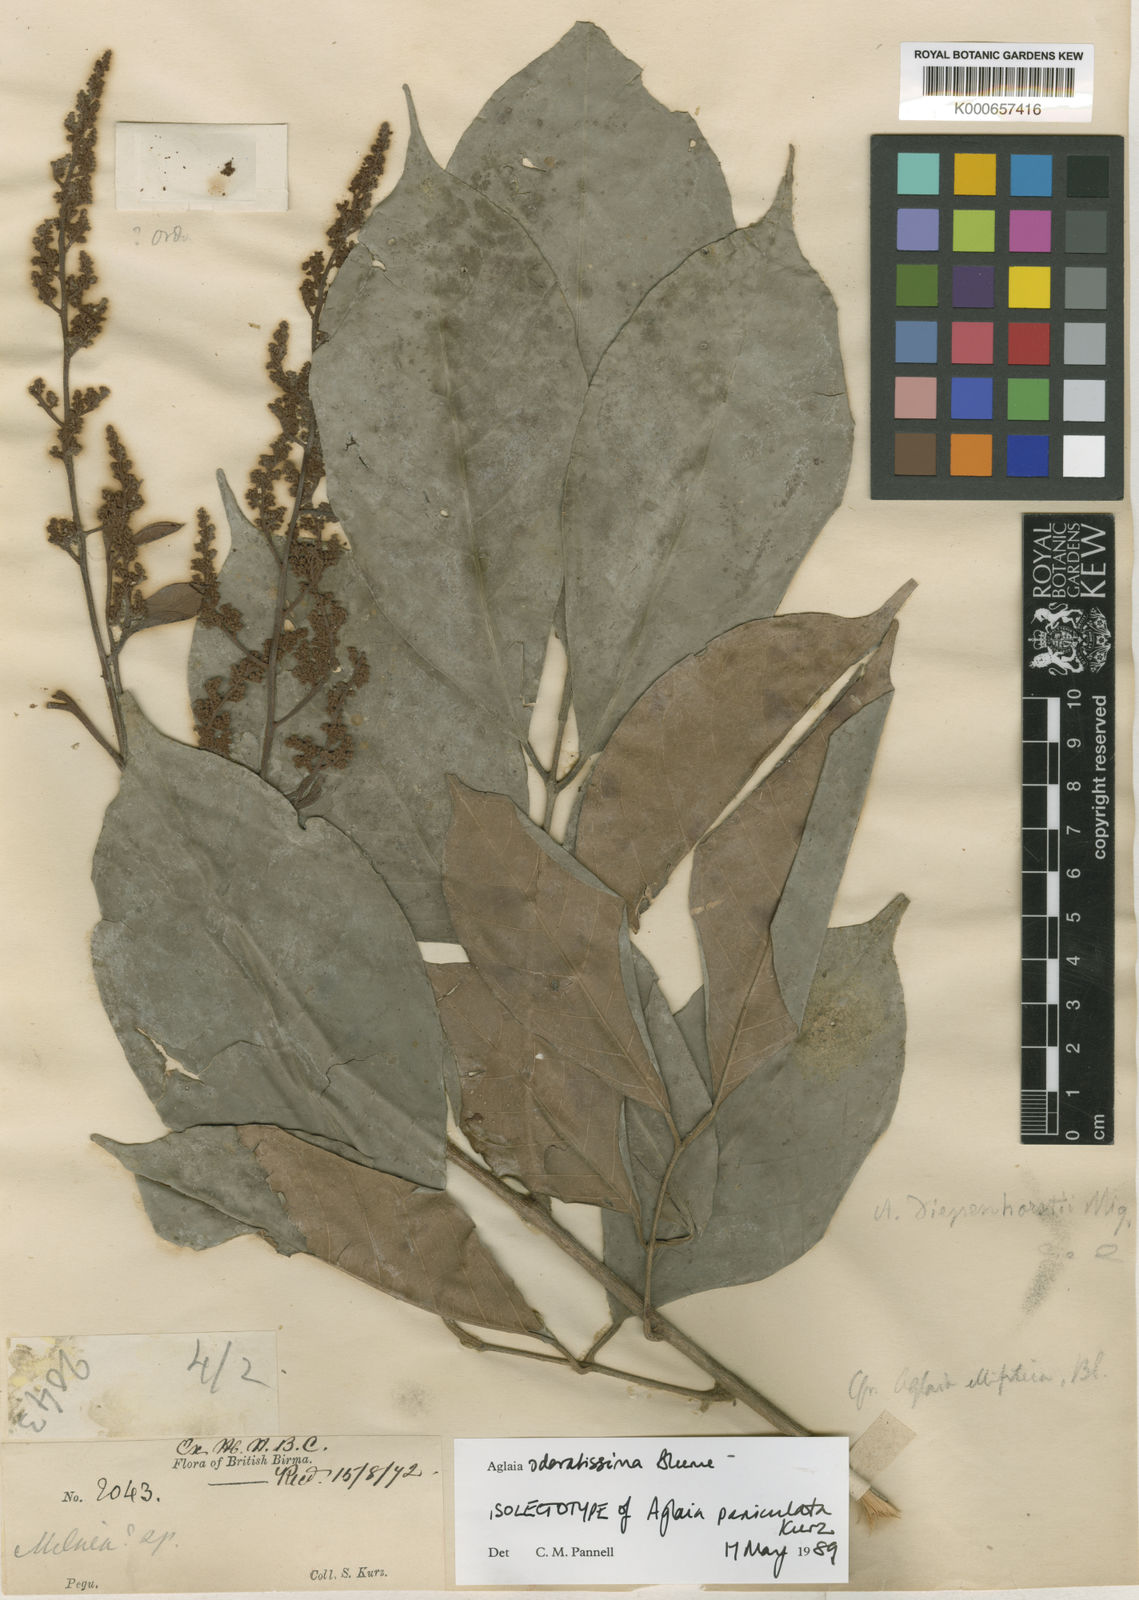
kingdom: Plantae
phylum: Tracheophyta
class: Magnoliopsida
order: Sapindales
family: Meliaceae
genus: Aglaia
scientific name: Aglaia odoratissima
